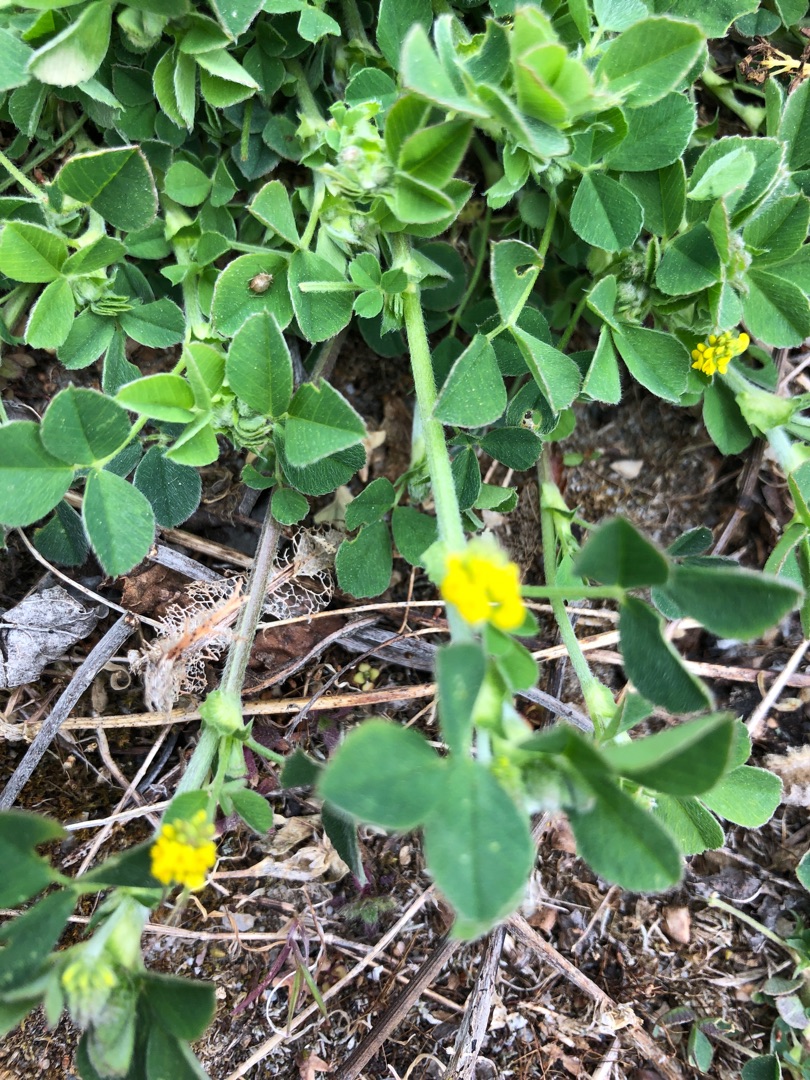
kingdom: Plantae
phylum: Tracheophyta
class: Magnoliopsida
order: Fabales
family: Fabaceae
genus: Medicago
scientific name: Medicago lupulina
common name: Humle-sneglebælg
